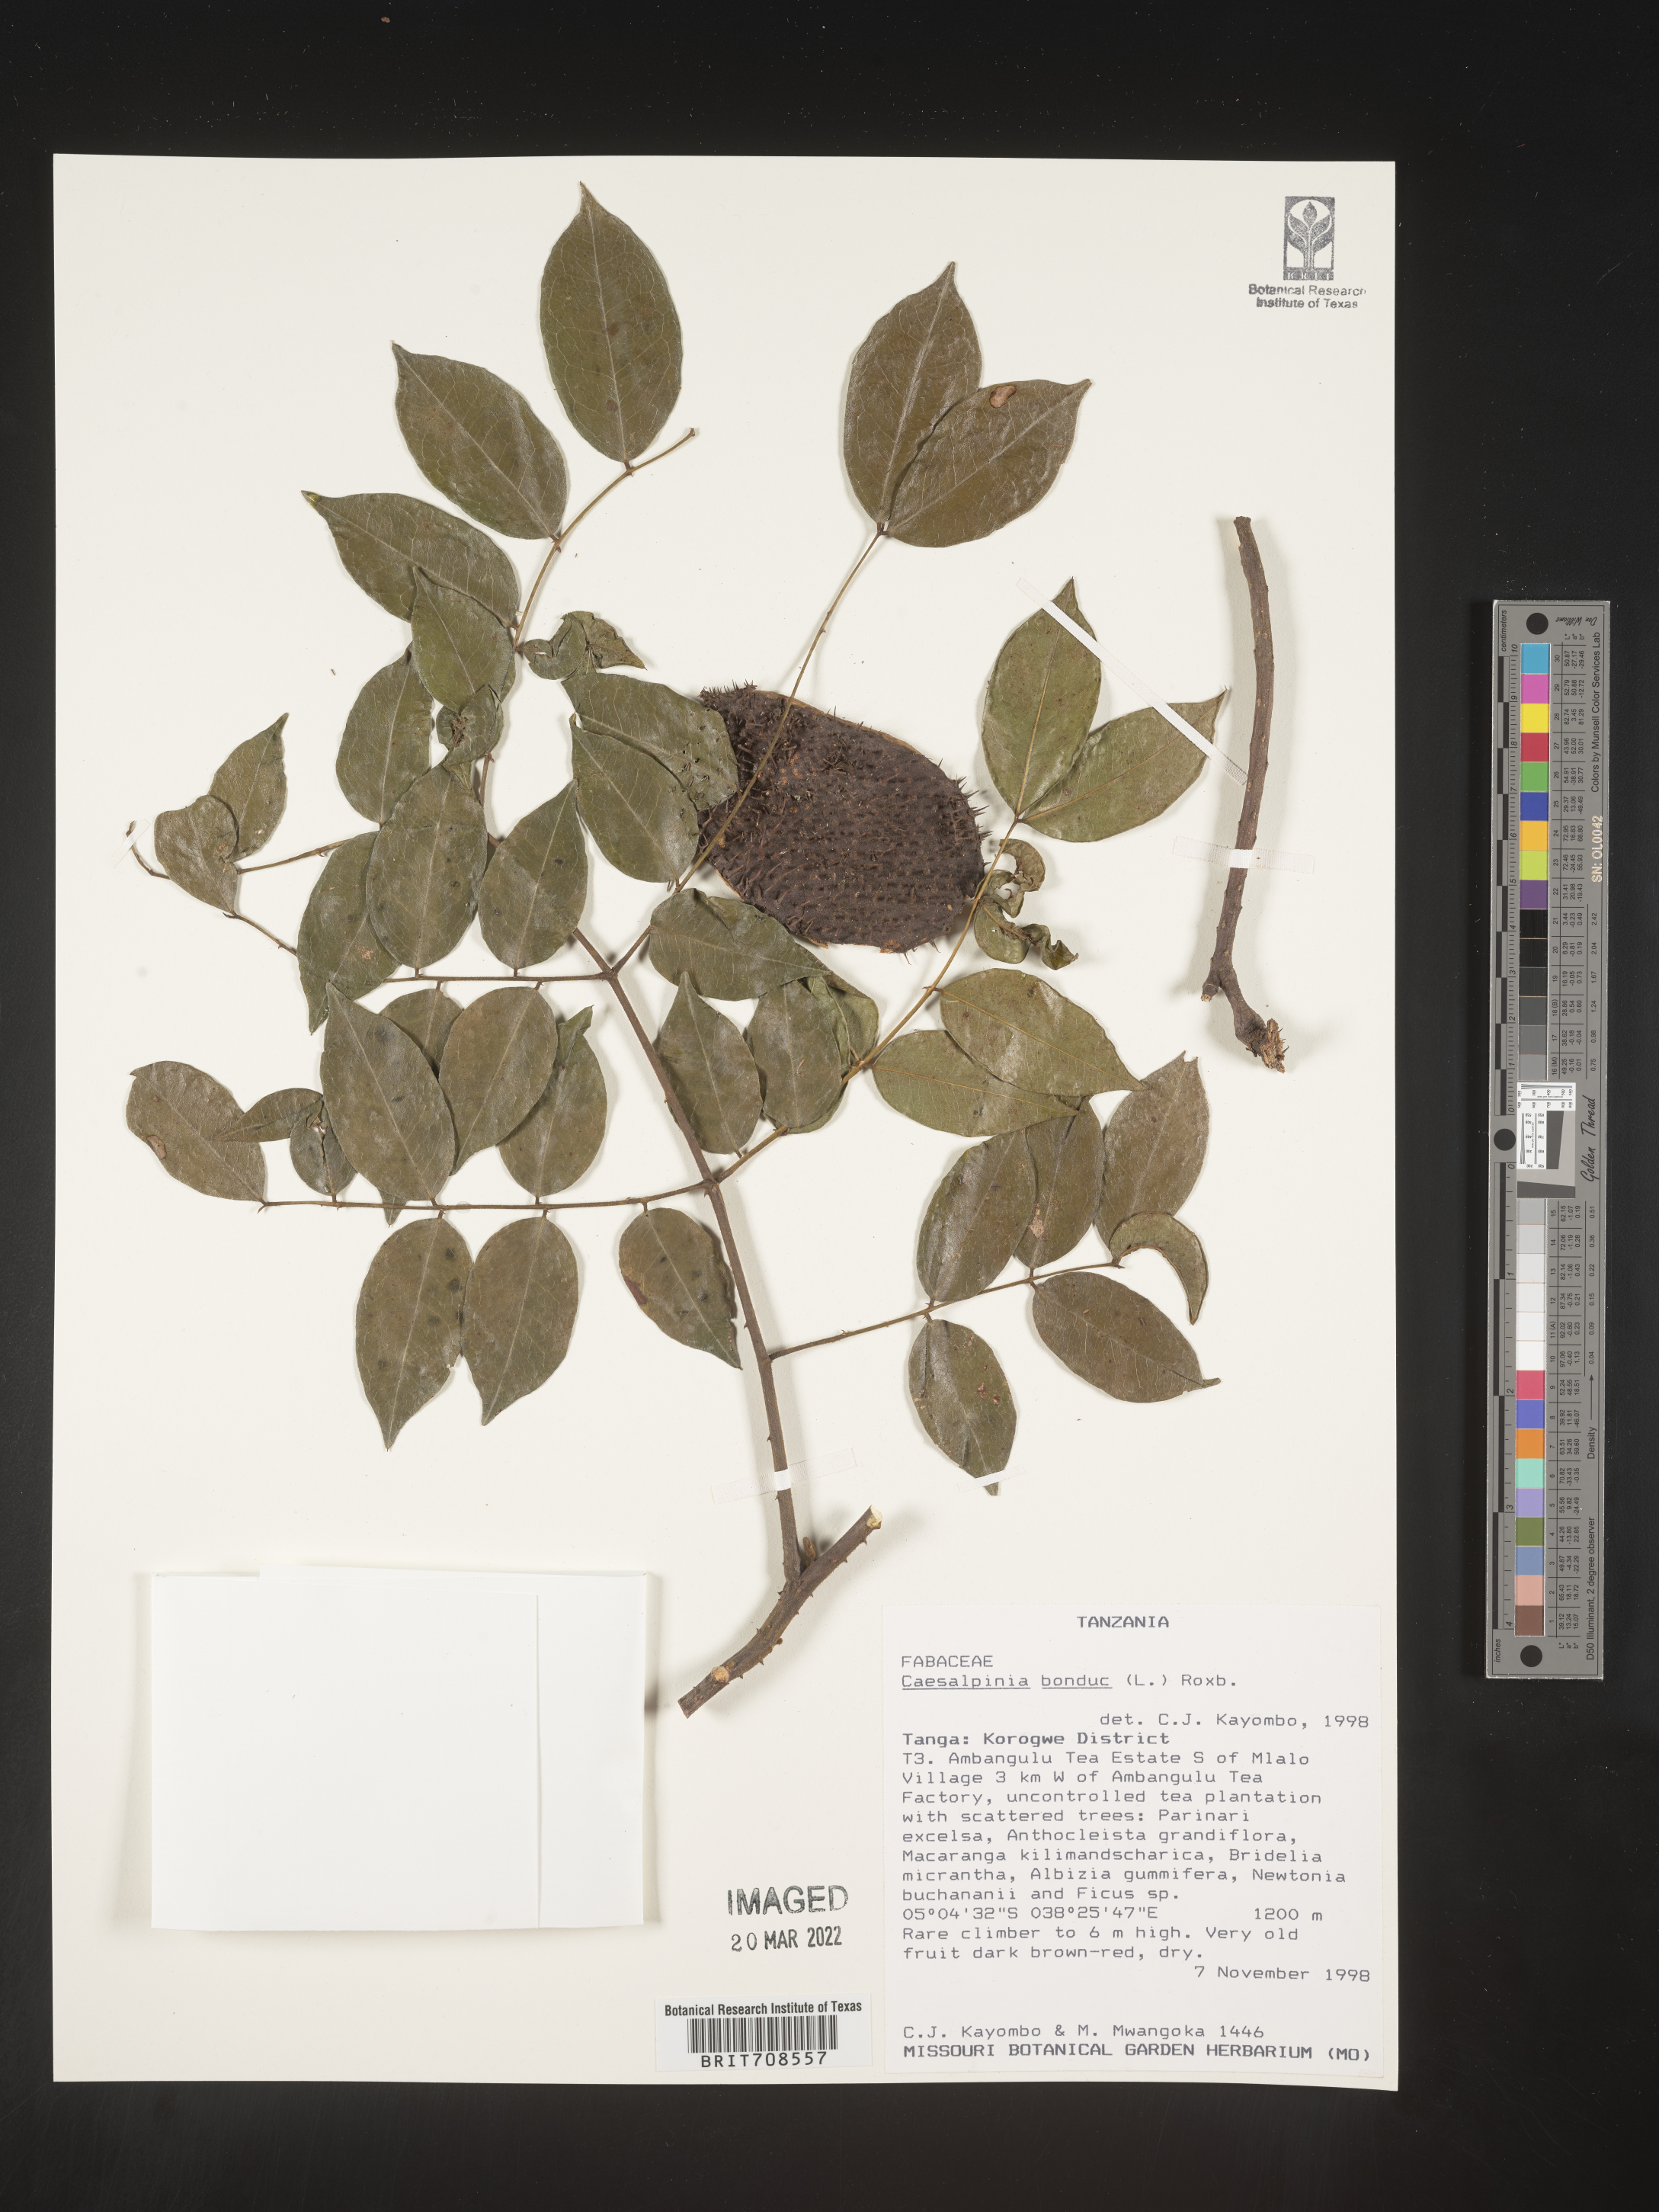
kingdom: Plantae
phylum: Tracheophyta
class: Magnoliopsida
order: Fabales
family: Fabaceae
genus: Caesalpinia
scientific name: Caesalpinia
